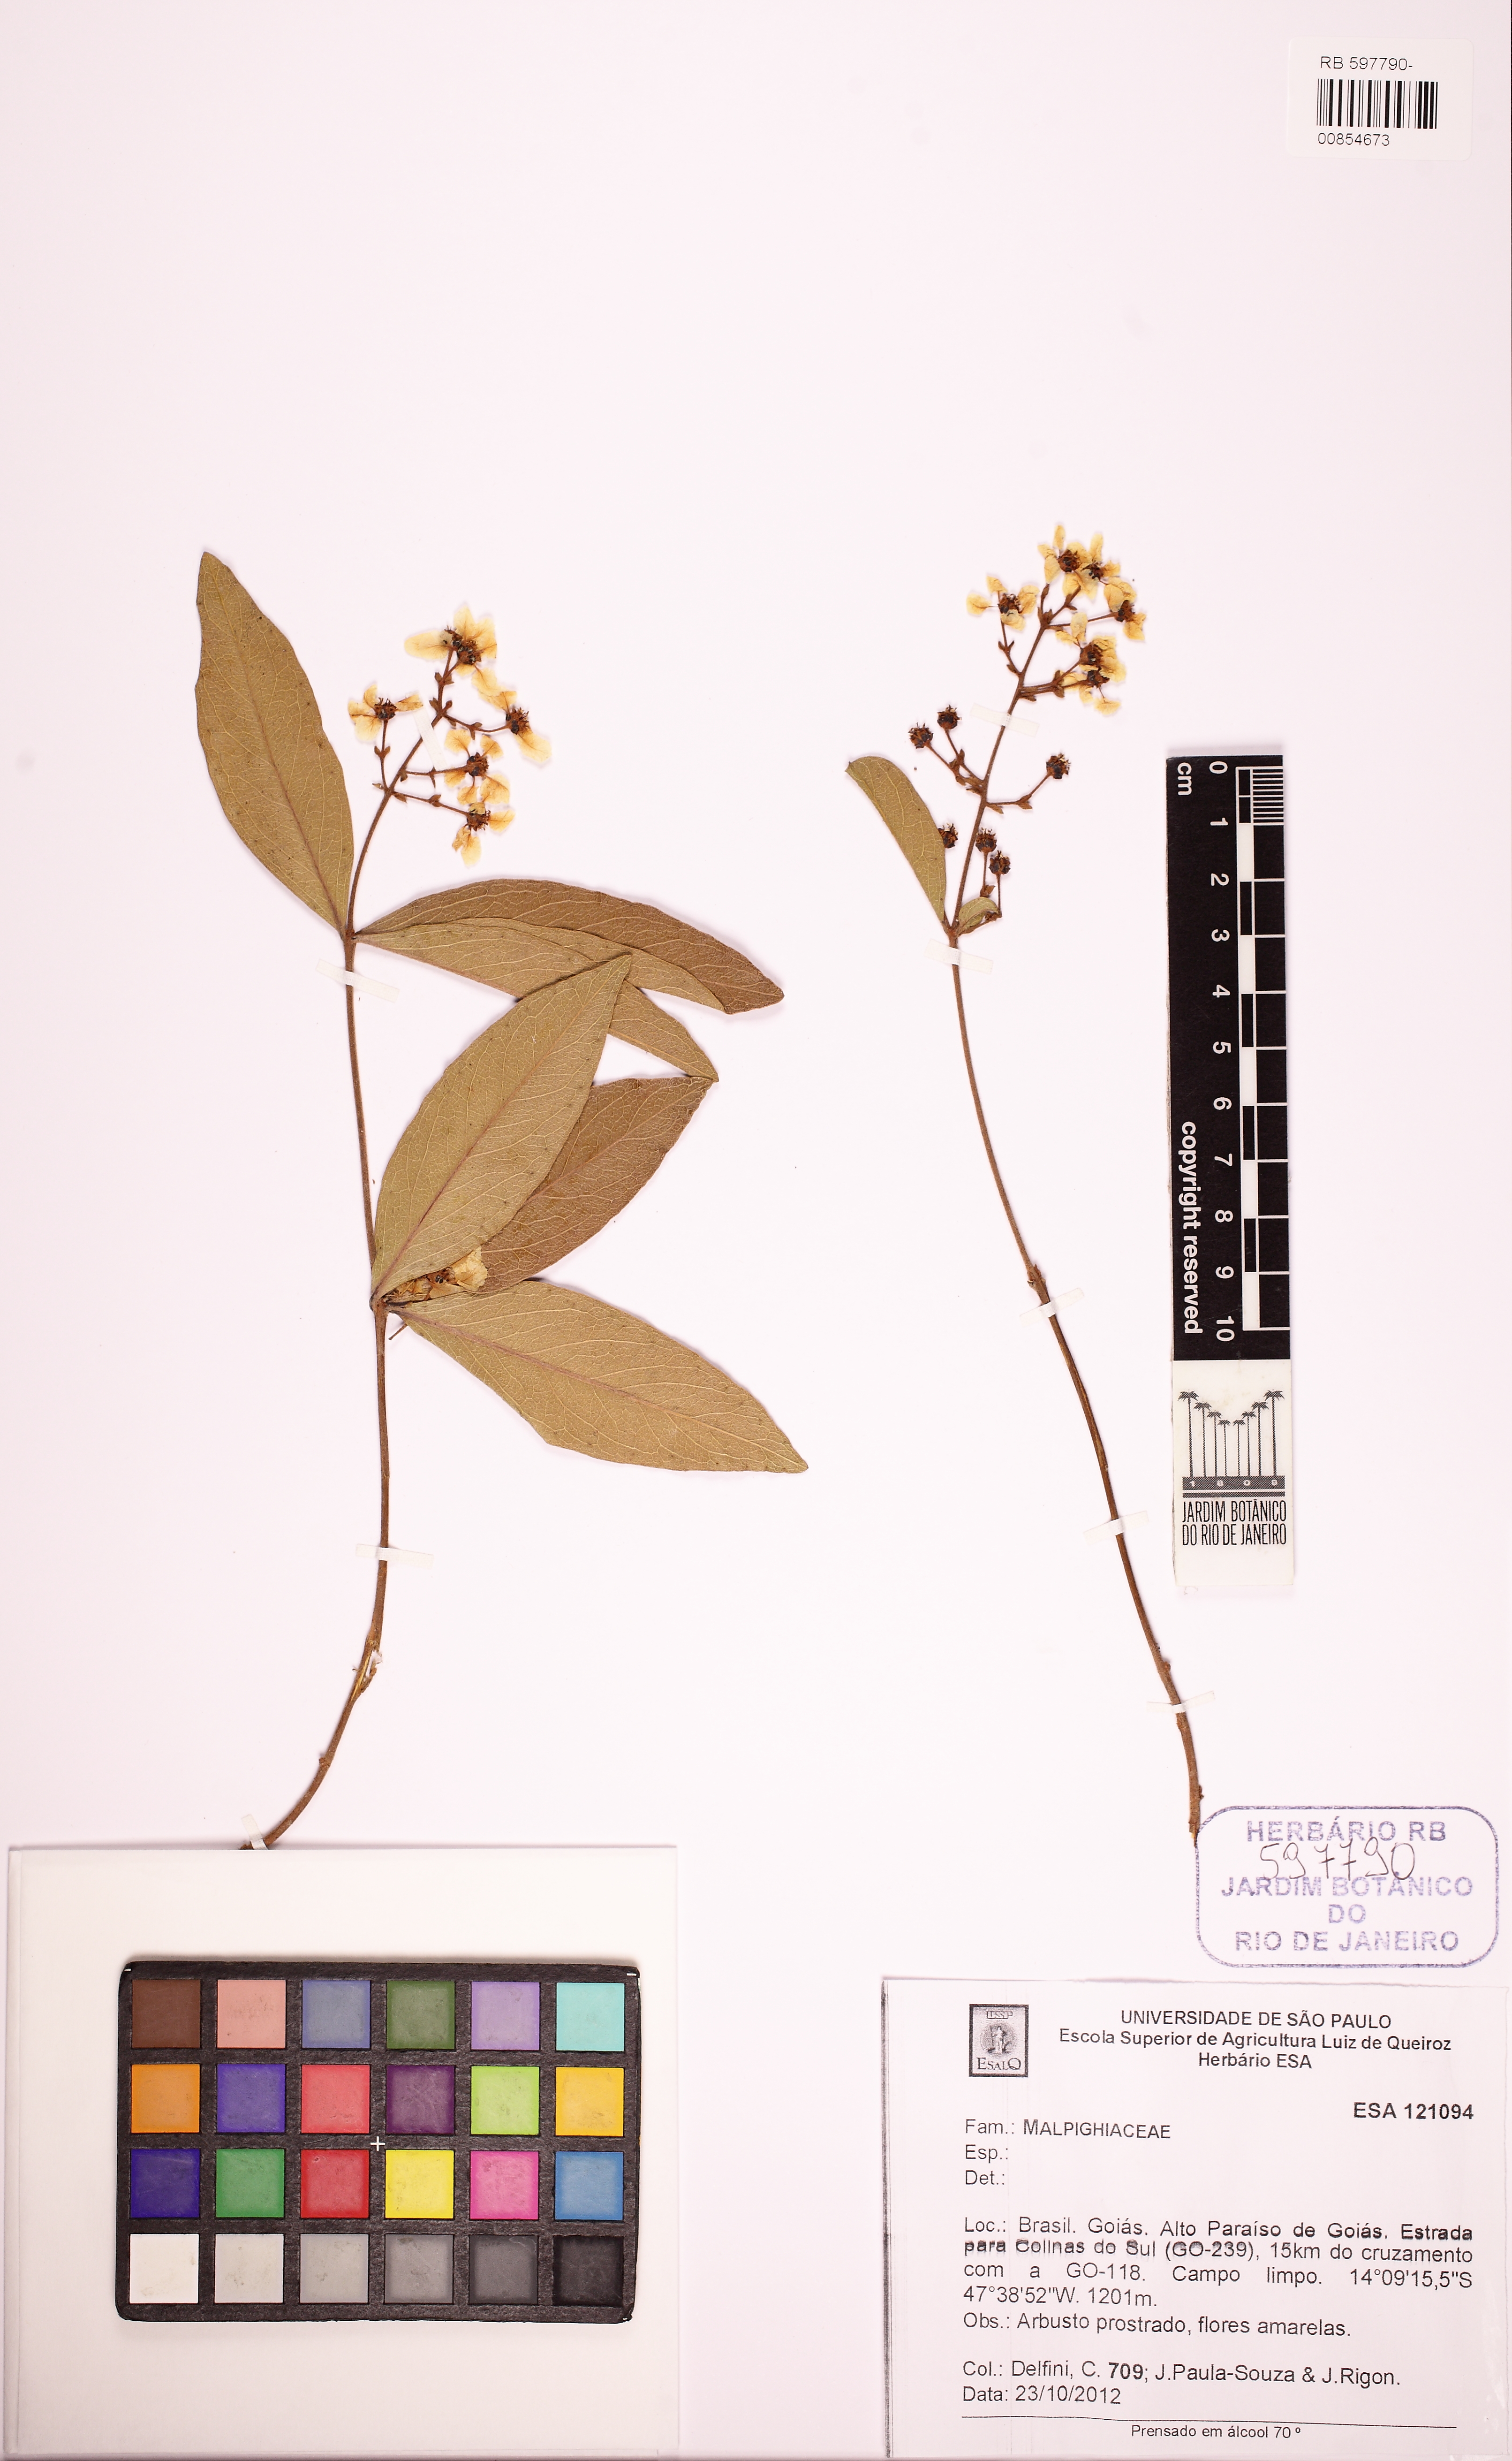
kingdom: Plantae
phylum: Tracheophyta
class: Magnoliopsida
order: Malpighiales
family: Malpighiaceae
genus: Heteropterys
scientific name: Heteropterys pannosa
